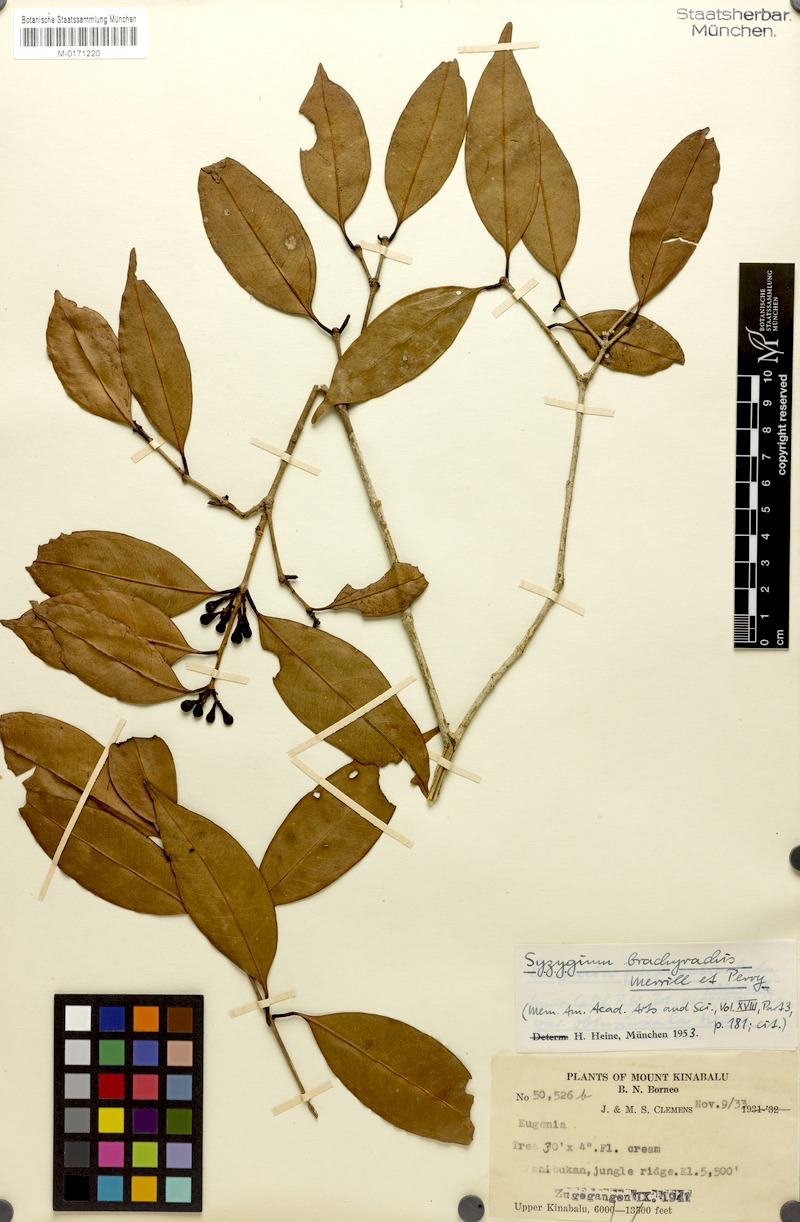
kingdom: Plantae
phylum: Tracheophyta
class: Magnoliopsida
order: Myrtales
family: Myrtaceae
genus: Syzygium
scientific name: Syzygium brachyrachis
